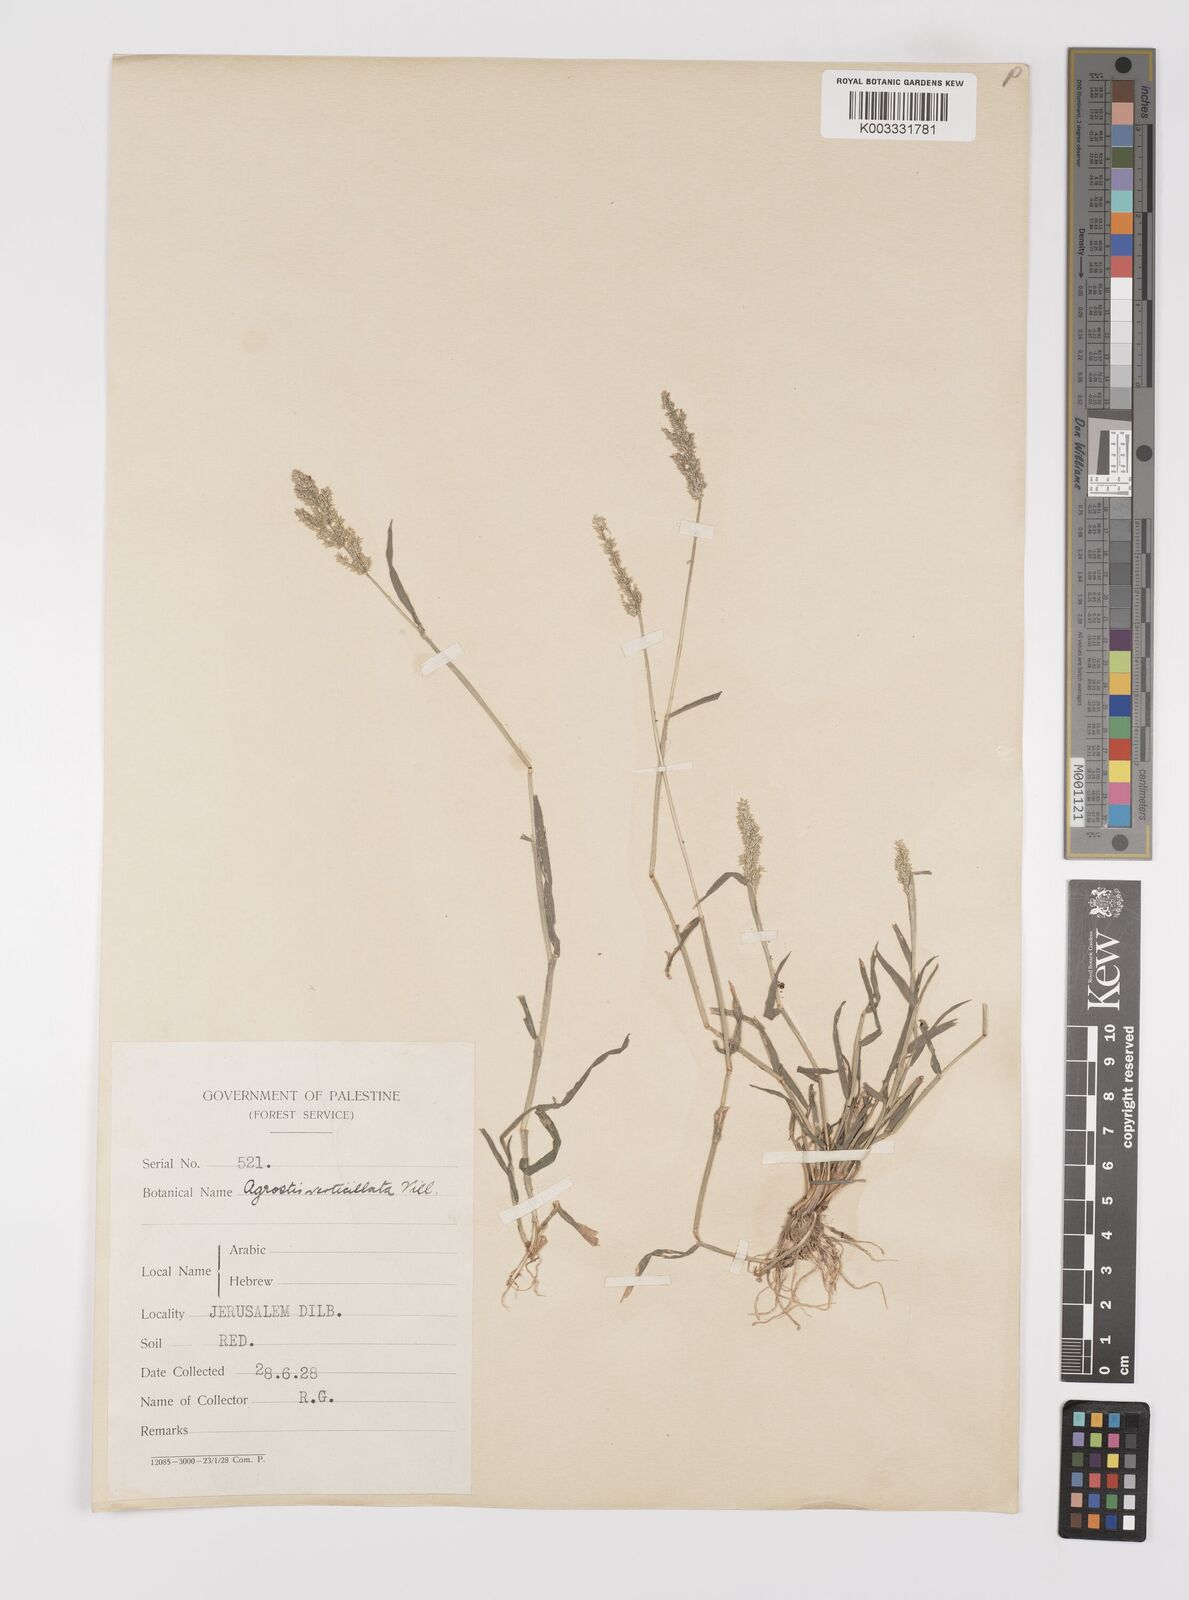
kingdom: Plantae
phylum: Tracheophyta
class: Liliopsida
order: Poales
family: Poaceae
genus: Polypogon
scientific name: Polypogon viridis
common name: Water bent
